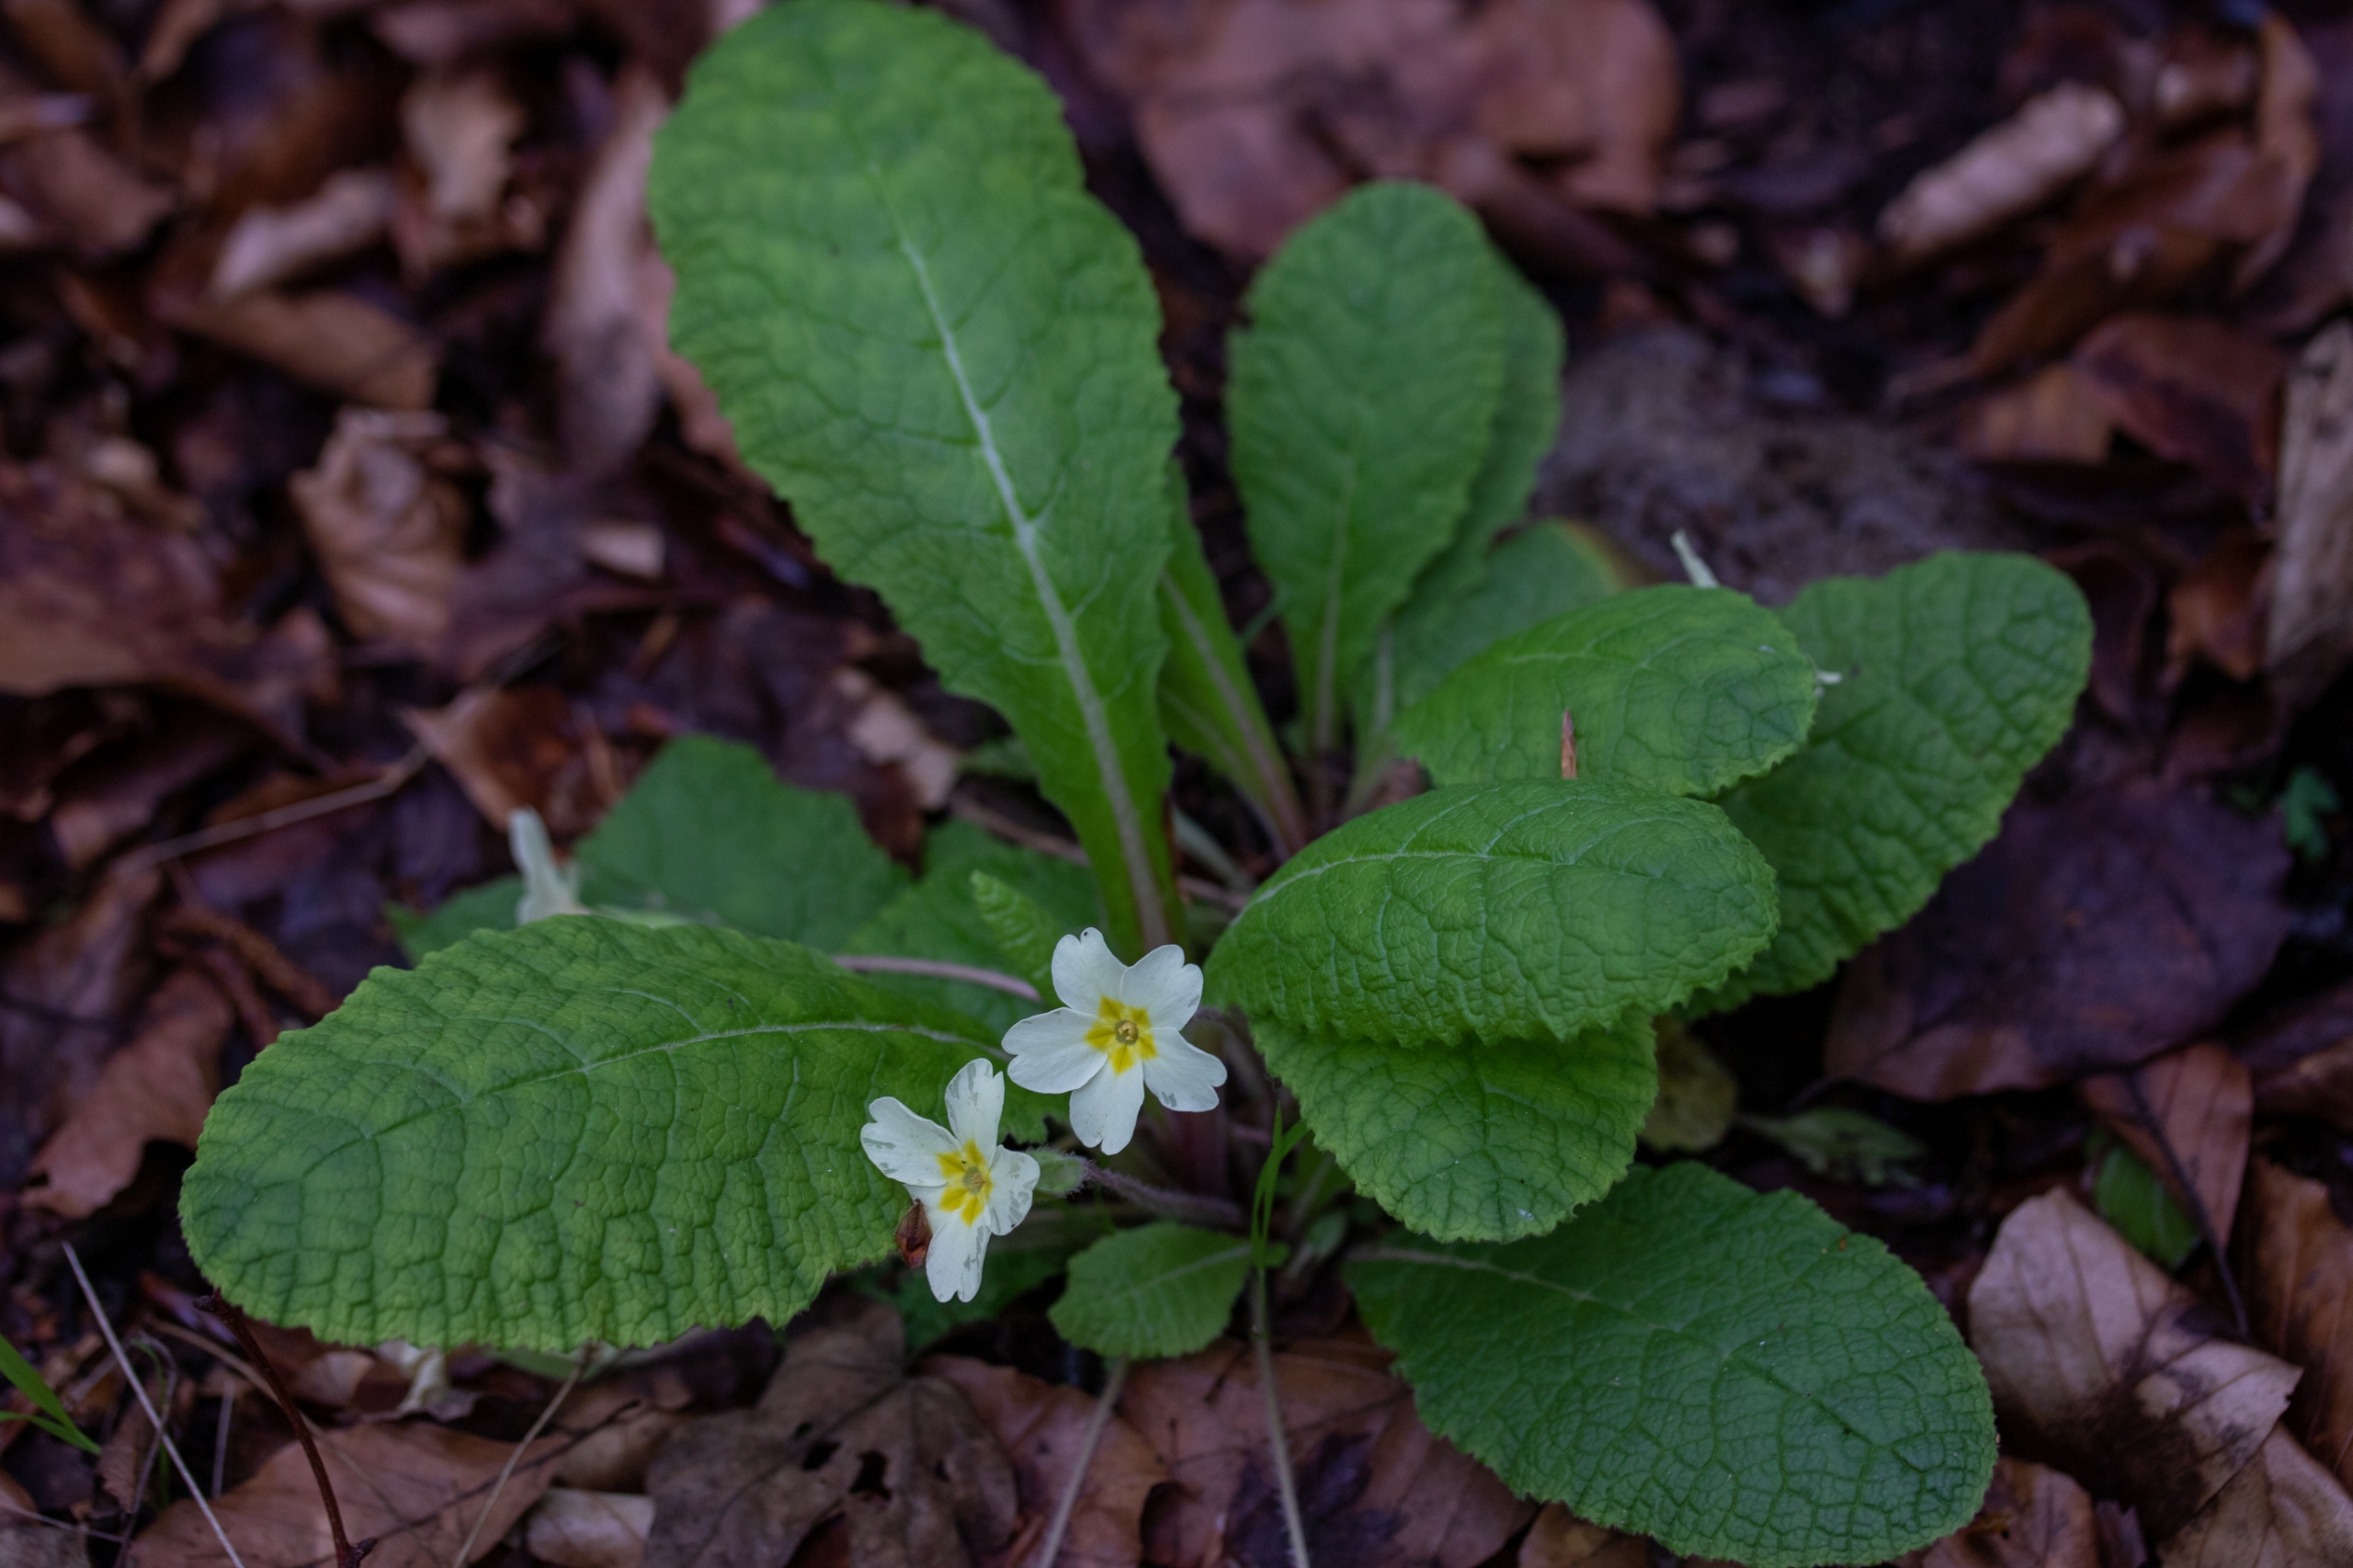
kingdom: Plantae
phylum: Tracheophyta
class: Magnoliopsida
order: Ericales
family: Primulaceae
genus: Primula
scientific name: Primula vulgaris
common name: Storblomstret kodriver
